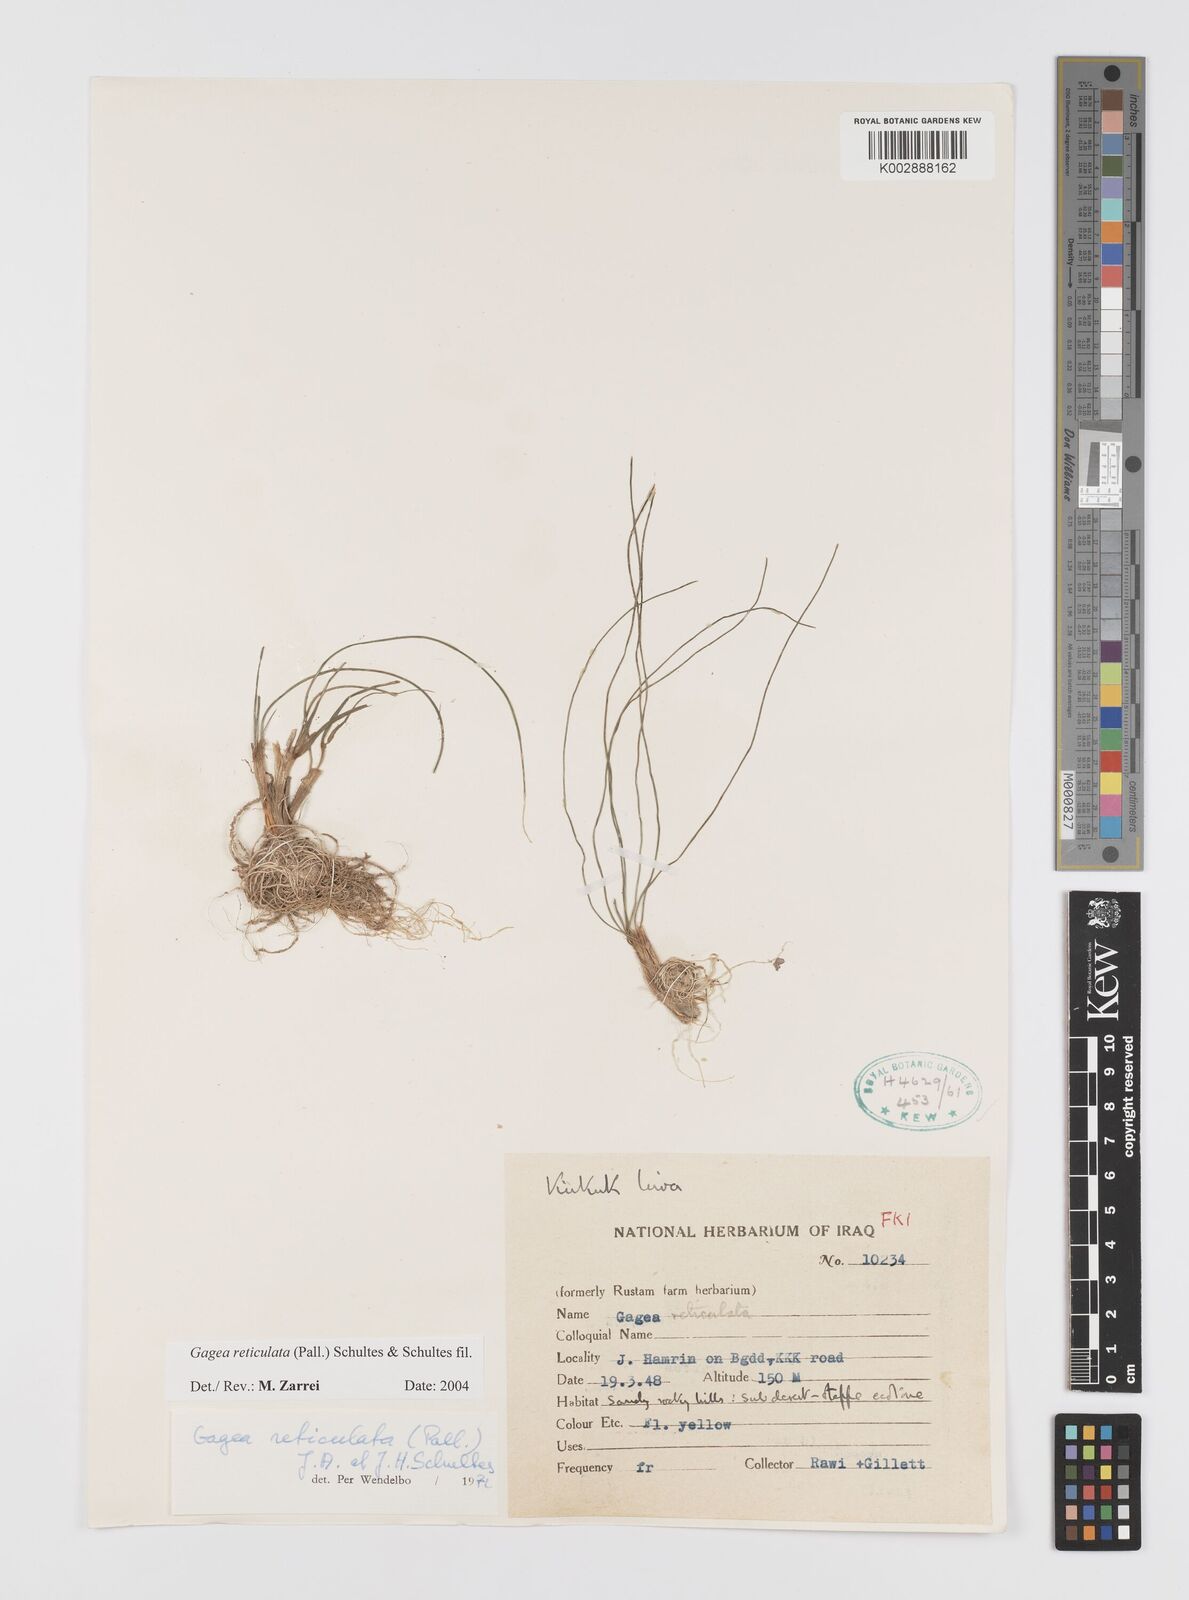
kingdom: Plantae
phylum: Tracheophyta
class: Liliopsida
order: Liliales
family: Liliaceae
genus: Gagea
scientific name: Gagea reticulata
